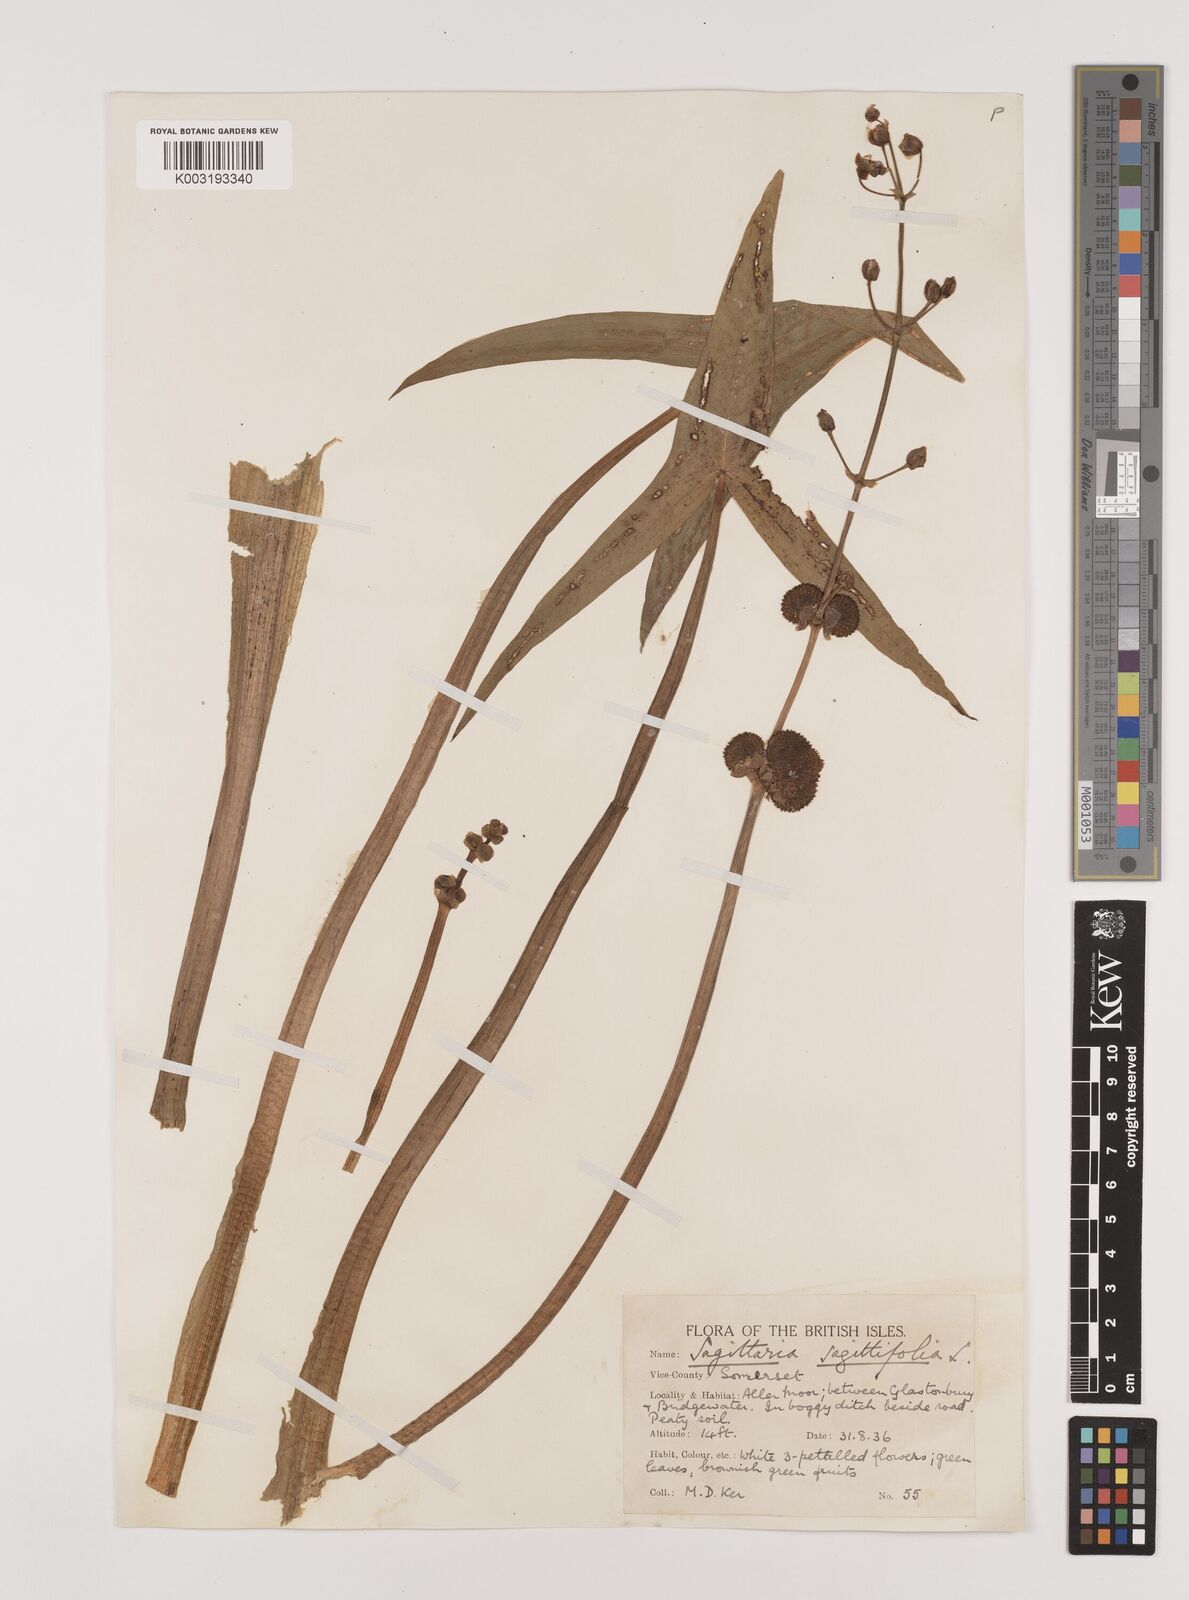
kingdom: Plantae
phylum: Tracheophyta
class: Liliopsida
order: Alismatales
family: Alismataceae
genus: Sagittaria
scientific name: Sagittaria sagittifolia
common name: Arrowhead
